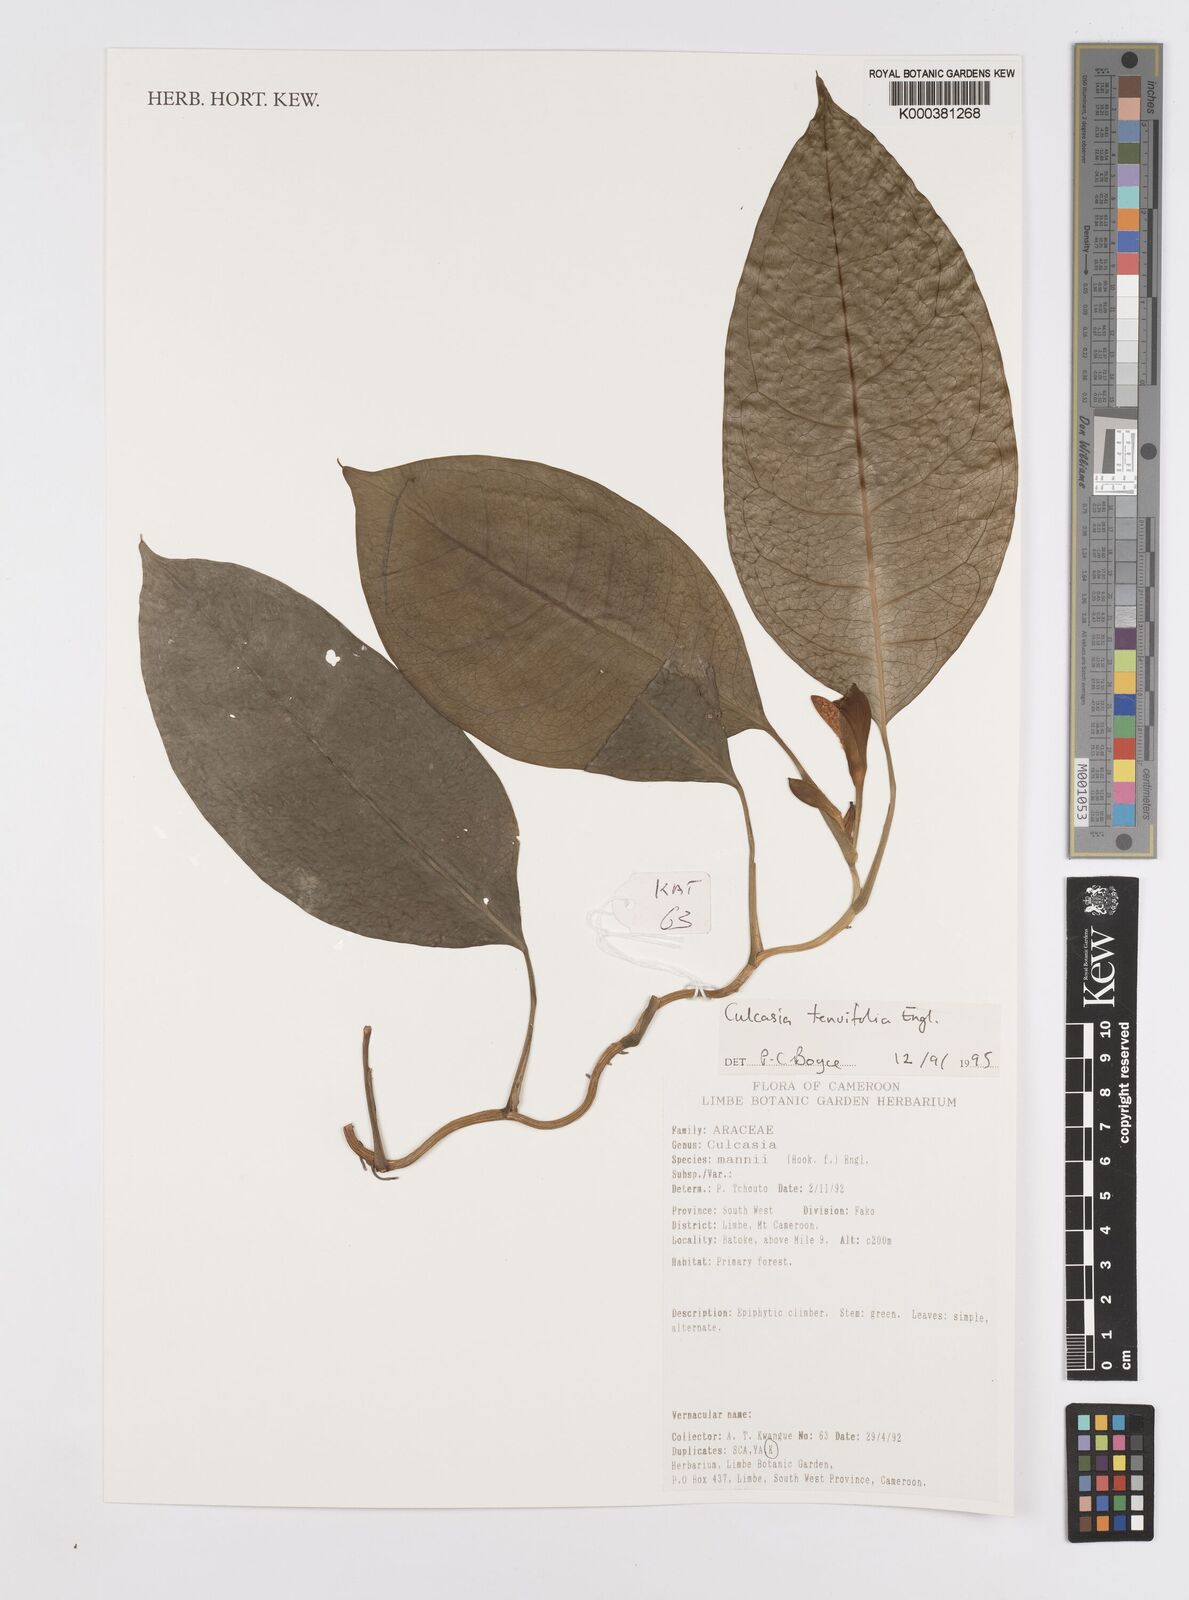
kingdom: Plantae
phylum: Tracheophyta
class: Liliopsida
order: Alismatales
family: Araceae
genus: Culcasia
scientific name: Culcasia tenuifolia
